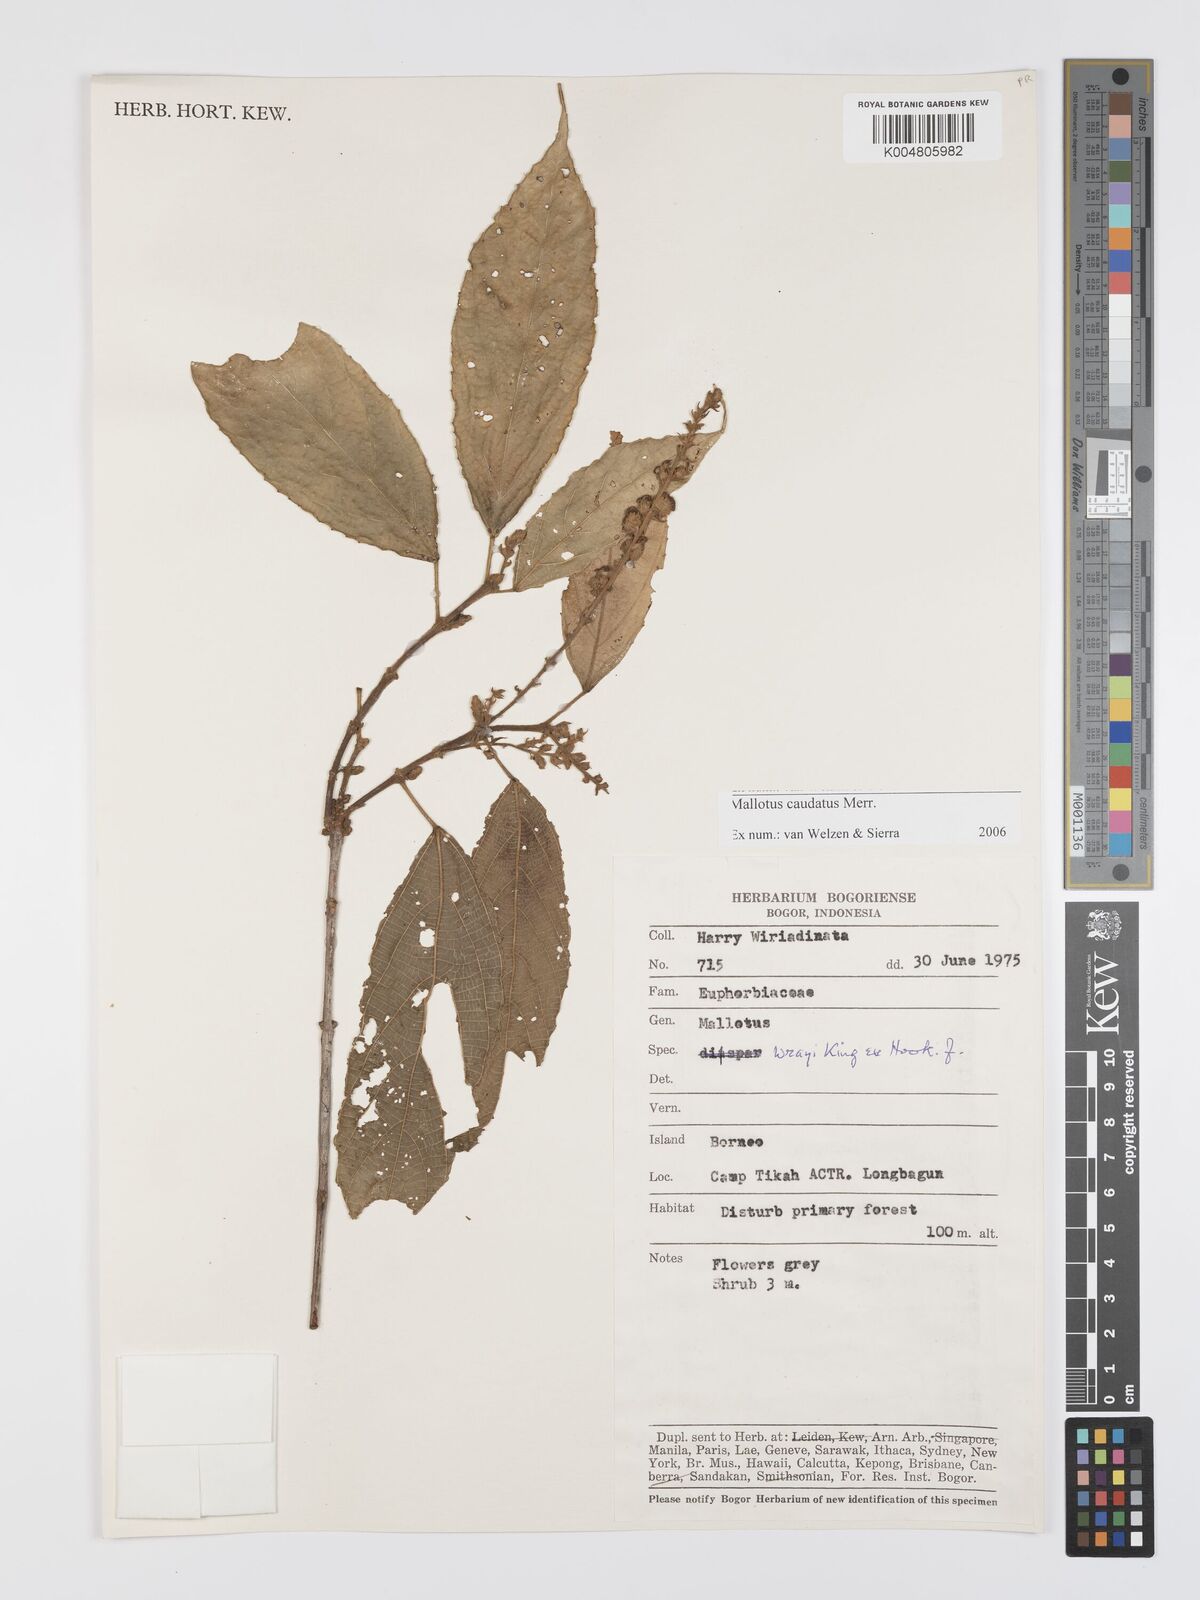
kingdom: Plantae
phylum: Tracheophyta
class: Magnoliopsida
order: Malpighiales
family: Euphorbiaceae
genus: Mallotus
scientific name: Mallotus caudatus
